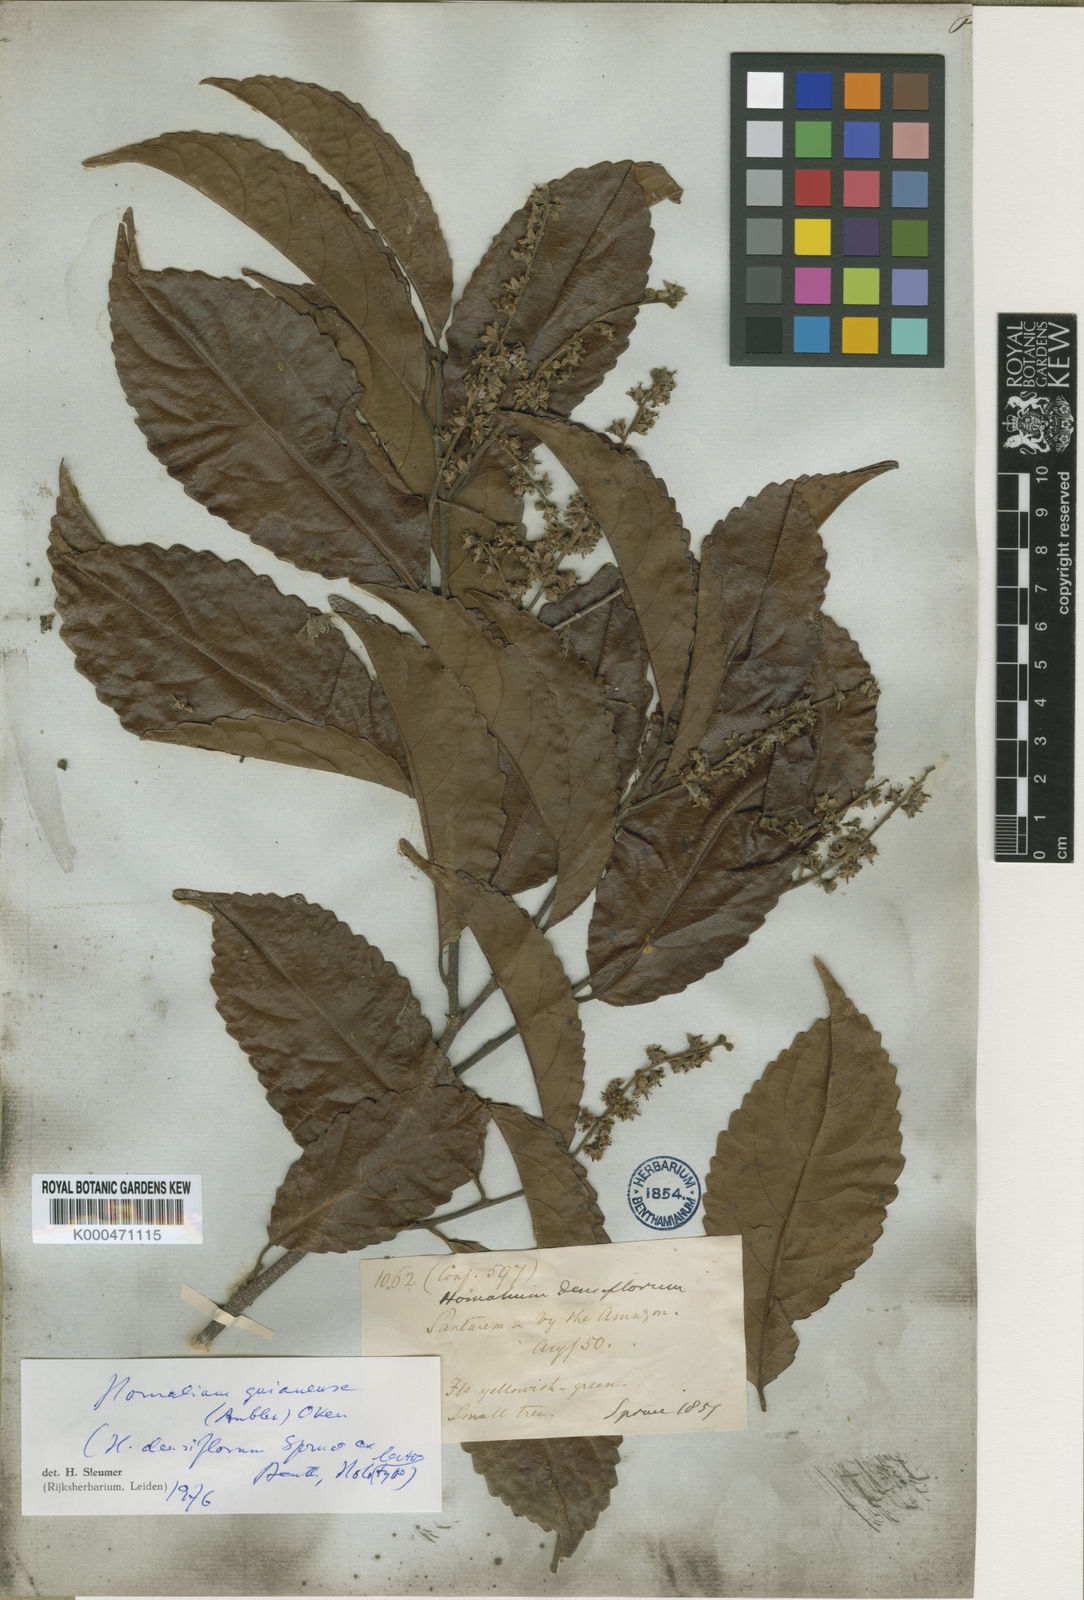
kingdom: Plantae
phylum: Tracheophyta
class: Magnoliopsida
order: Malpighiales
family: Salicaceae
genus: Homalium
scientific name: Homalium guianense
